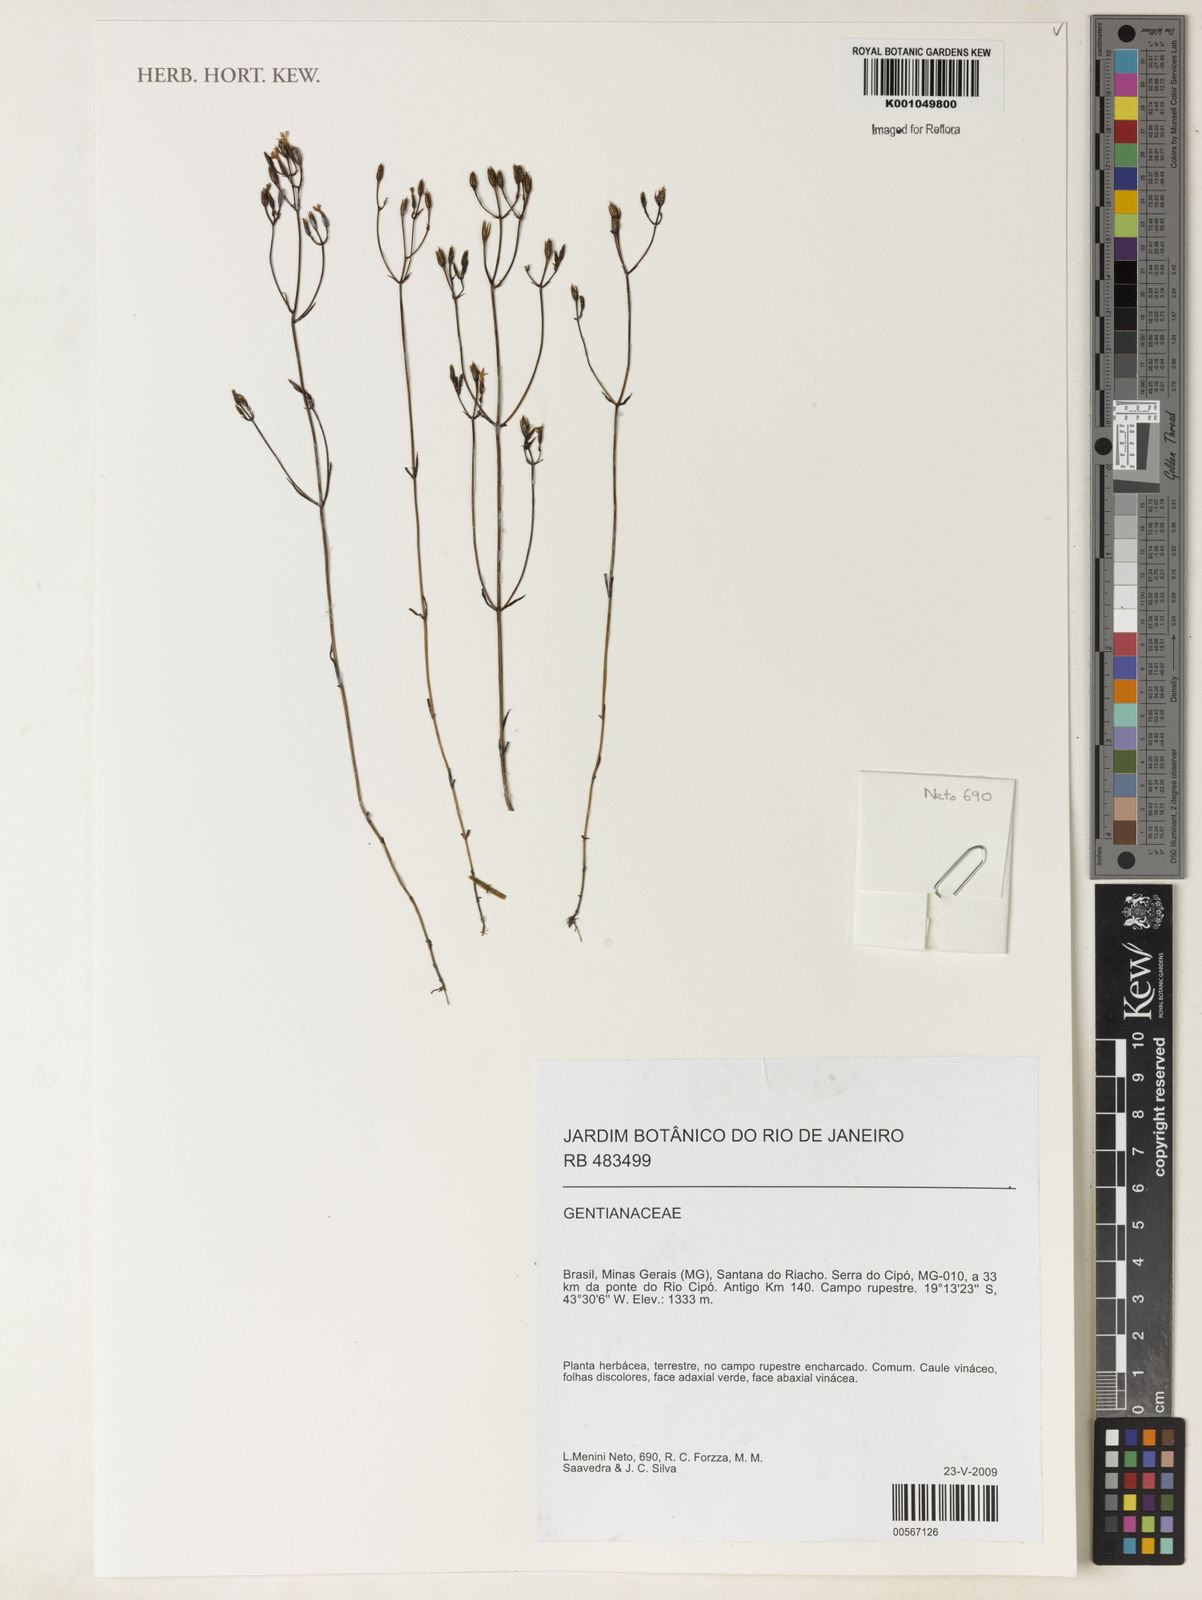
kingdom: Plantae
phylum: Tracheophyta
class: Magnoliopsida
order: Gentianales
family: Gentianaceae
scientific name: Gentianaceae
